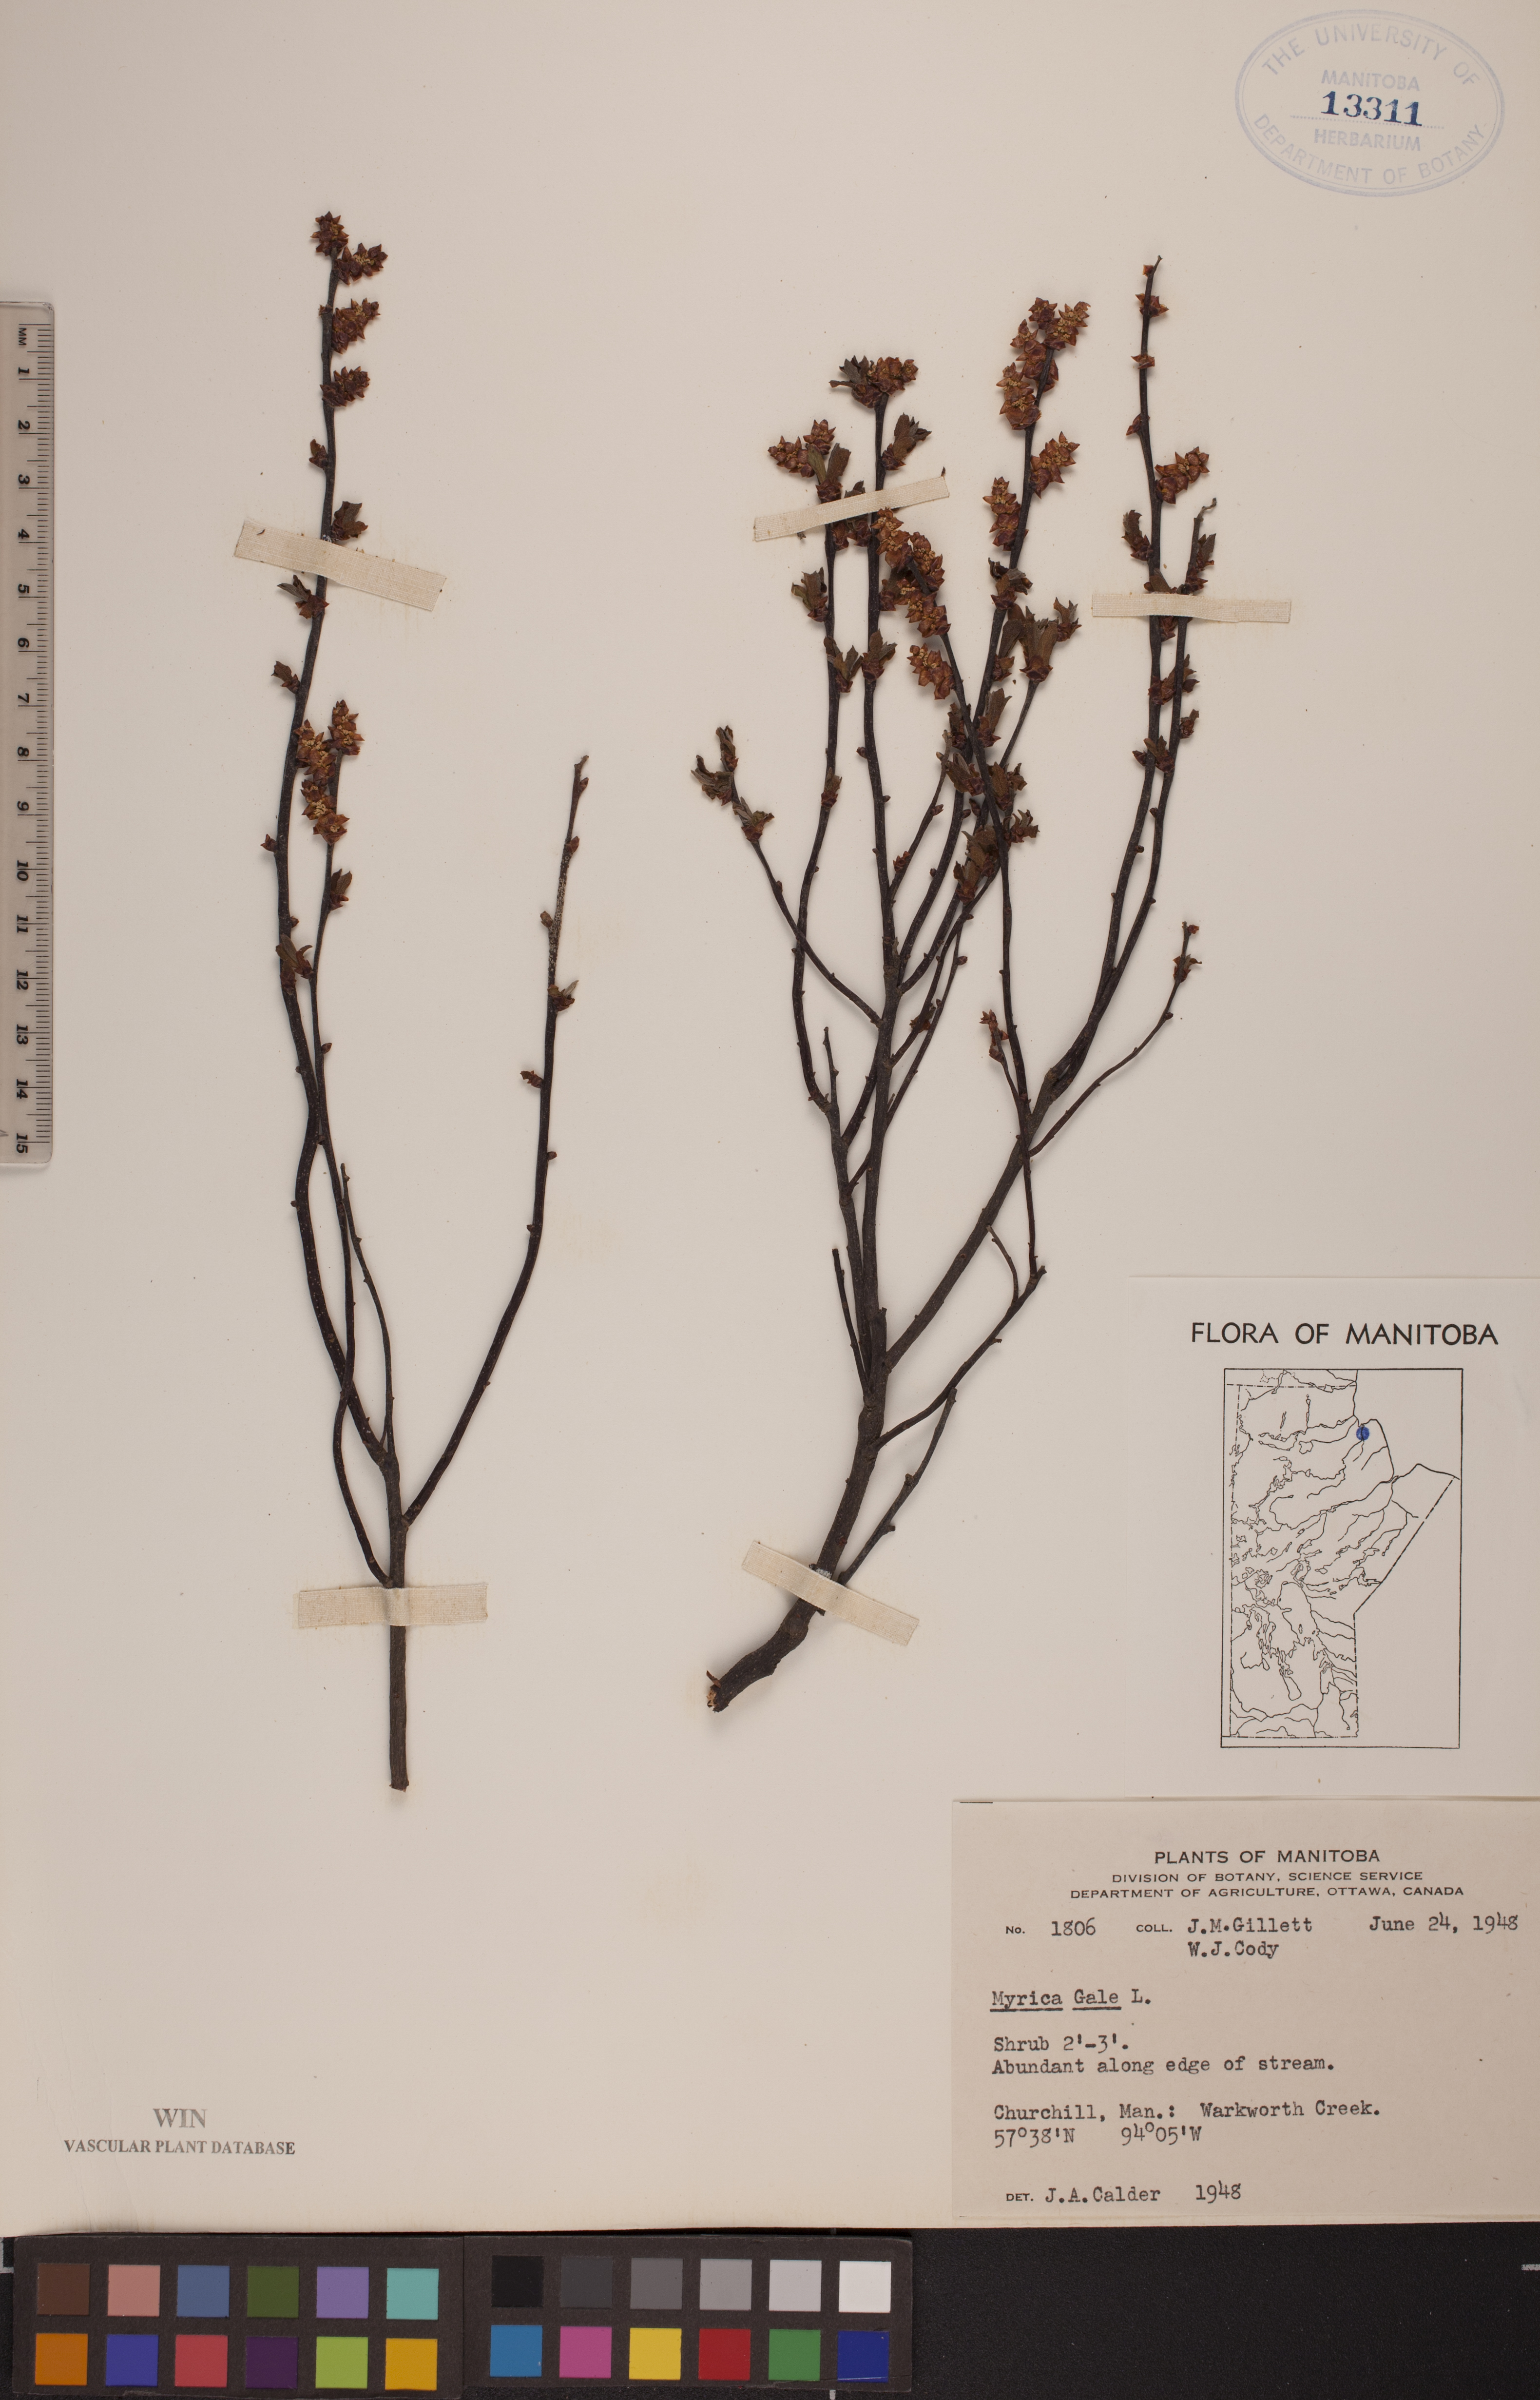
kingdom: Plantae
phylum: Tracheophyta
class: Magnoliopsida
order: Fagales
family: Myricaceae
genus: Myrica
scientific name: Myrica gale
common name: Sweet gale
